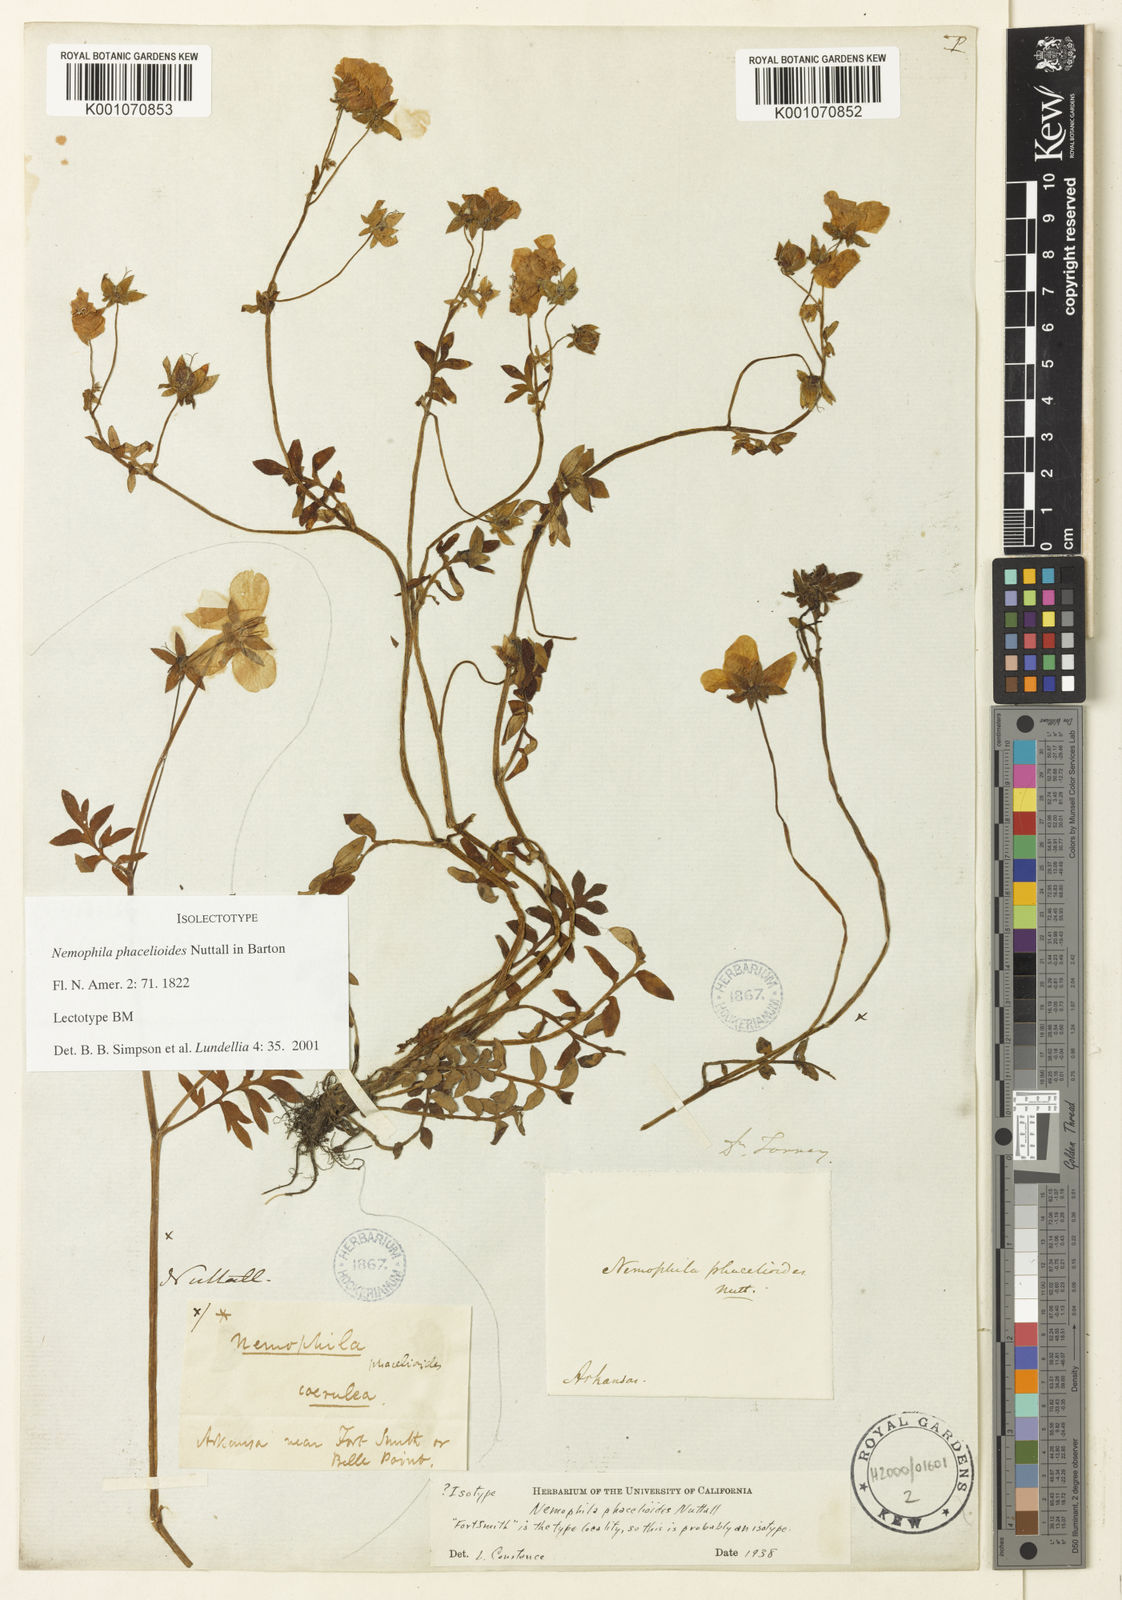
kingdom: Plantae
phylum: Tracheophyta
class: Magnoliopsida
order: Boraginales
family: Hydrophyllaceae
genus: Nemophila
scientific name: Nemophila
